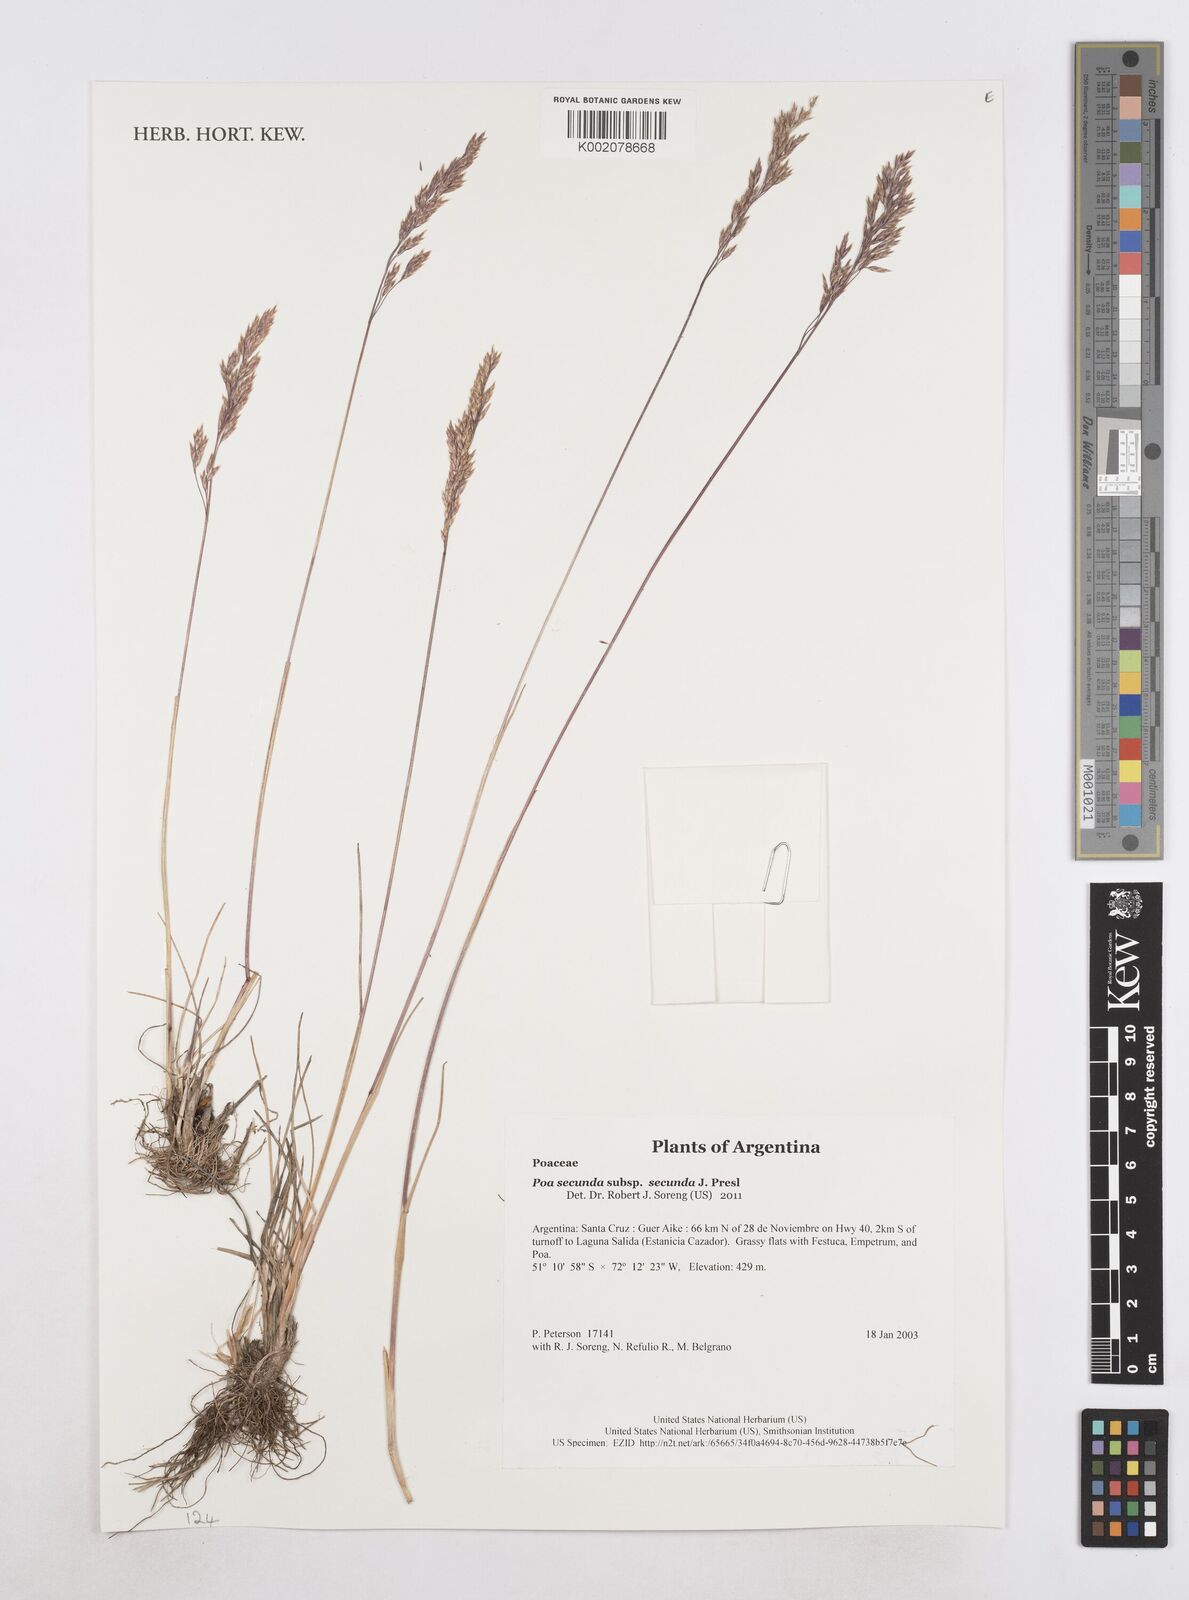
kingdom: Plantae
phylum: Tracheophyta
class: Liliopsida
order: Poales
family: Poaceae
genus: Poa
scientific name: Poa secunda
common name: Sandberg bluegrass
